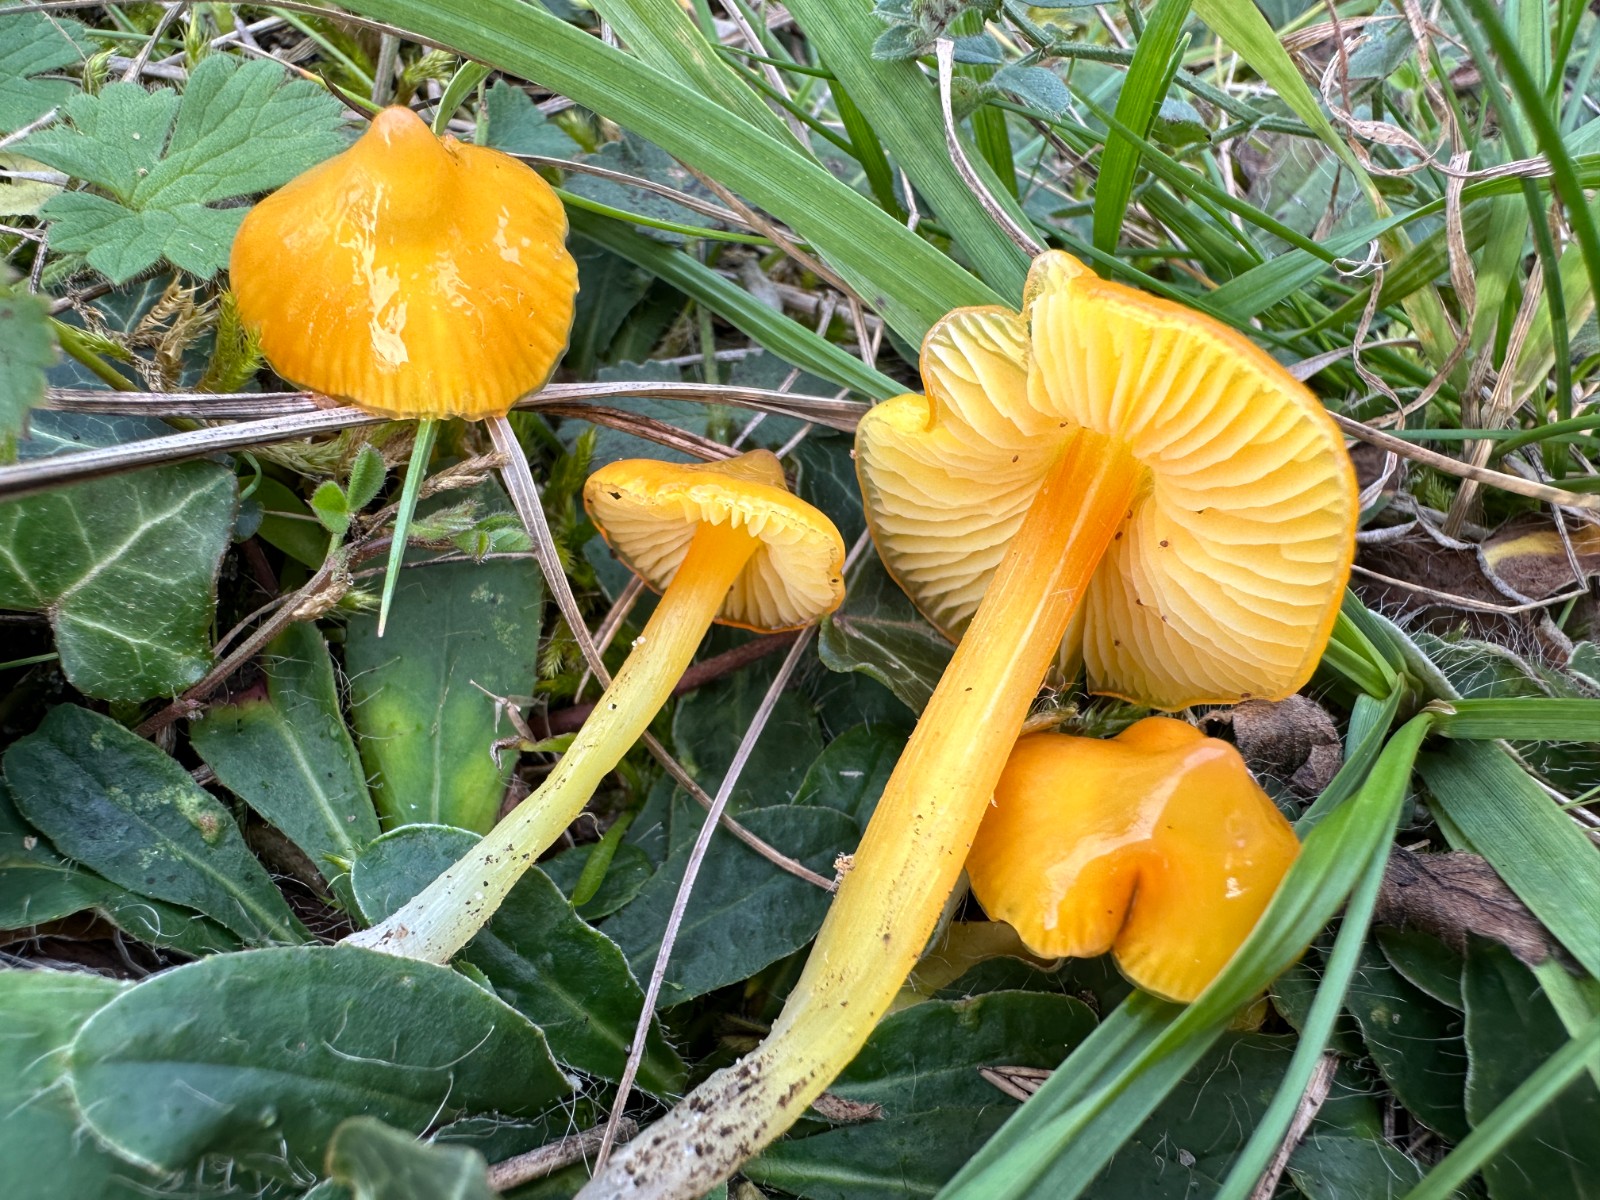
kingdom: Fungi
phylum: Basidiomycota
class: Agaricomycetes
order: Agaricales
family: Hygrophoraceae
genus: Hygrocybe
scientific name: Hygrocybe acutoconica
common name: spidspuklet vokshat
